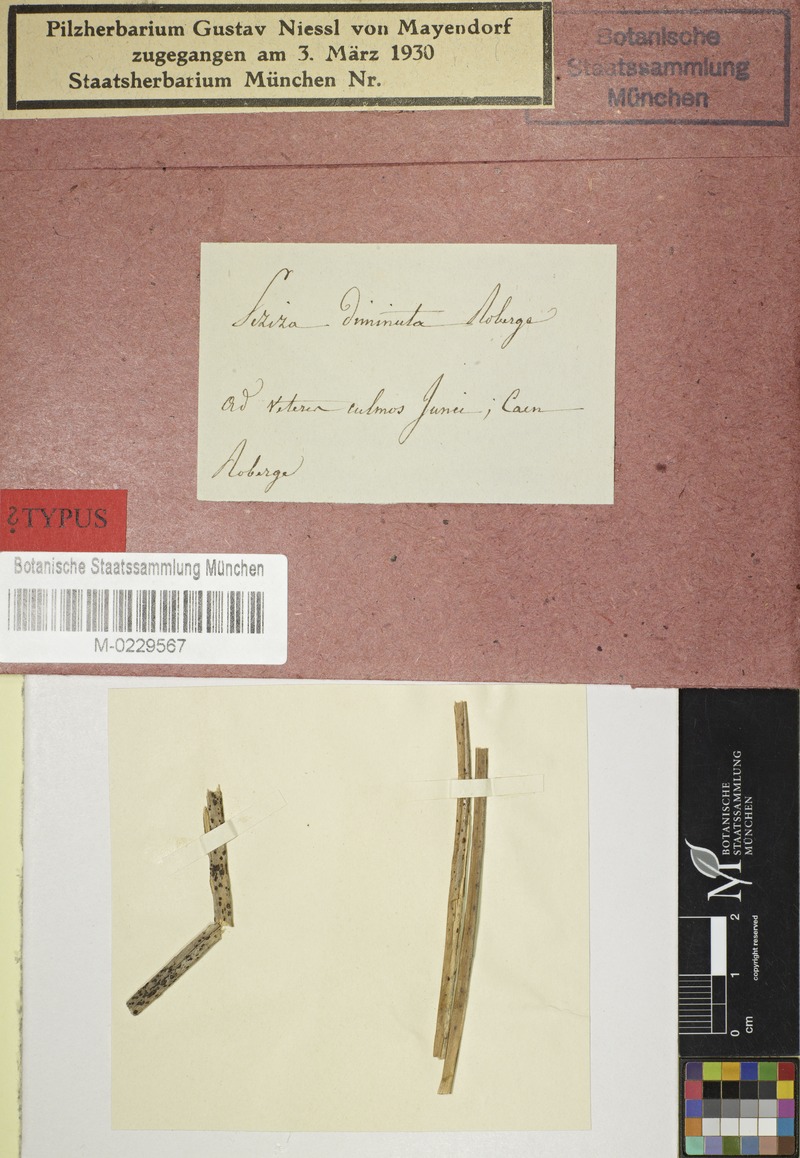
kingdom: Fungi
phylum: Ascomycota
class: Leotiomycetes
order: Helotiales
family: Lachnaceae
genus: Lachnum
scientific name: Lachnum diminutum
